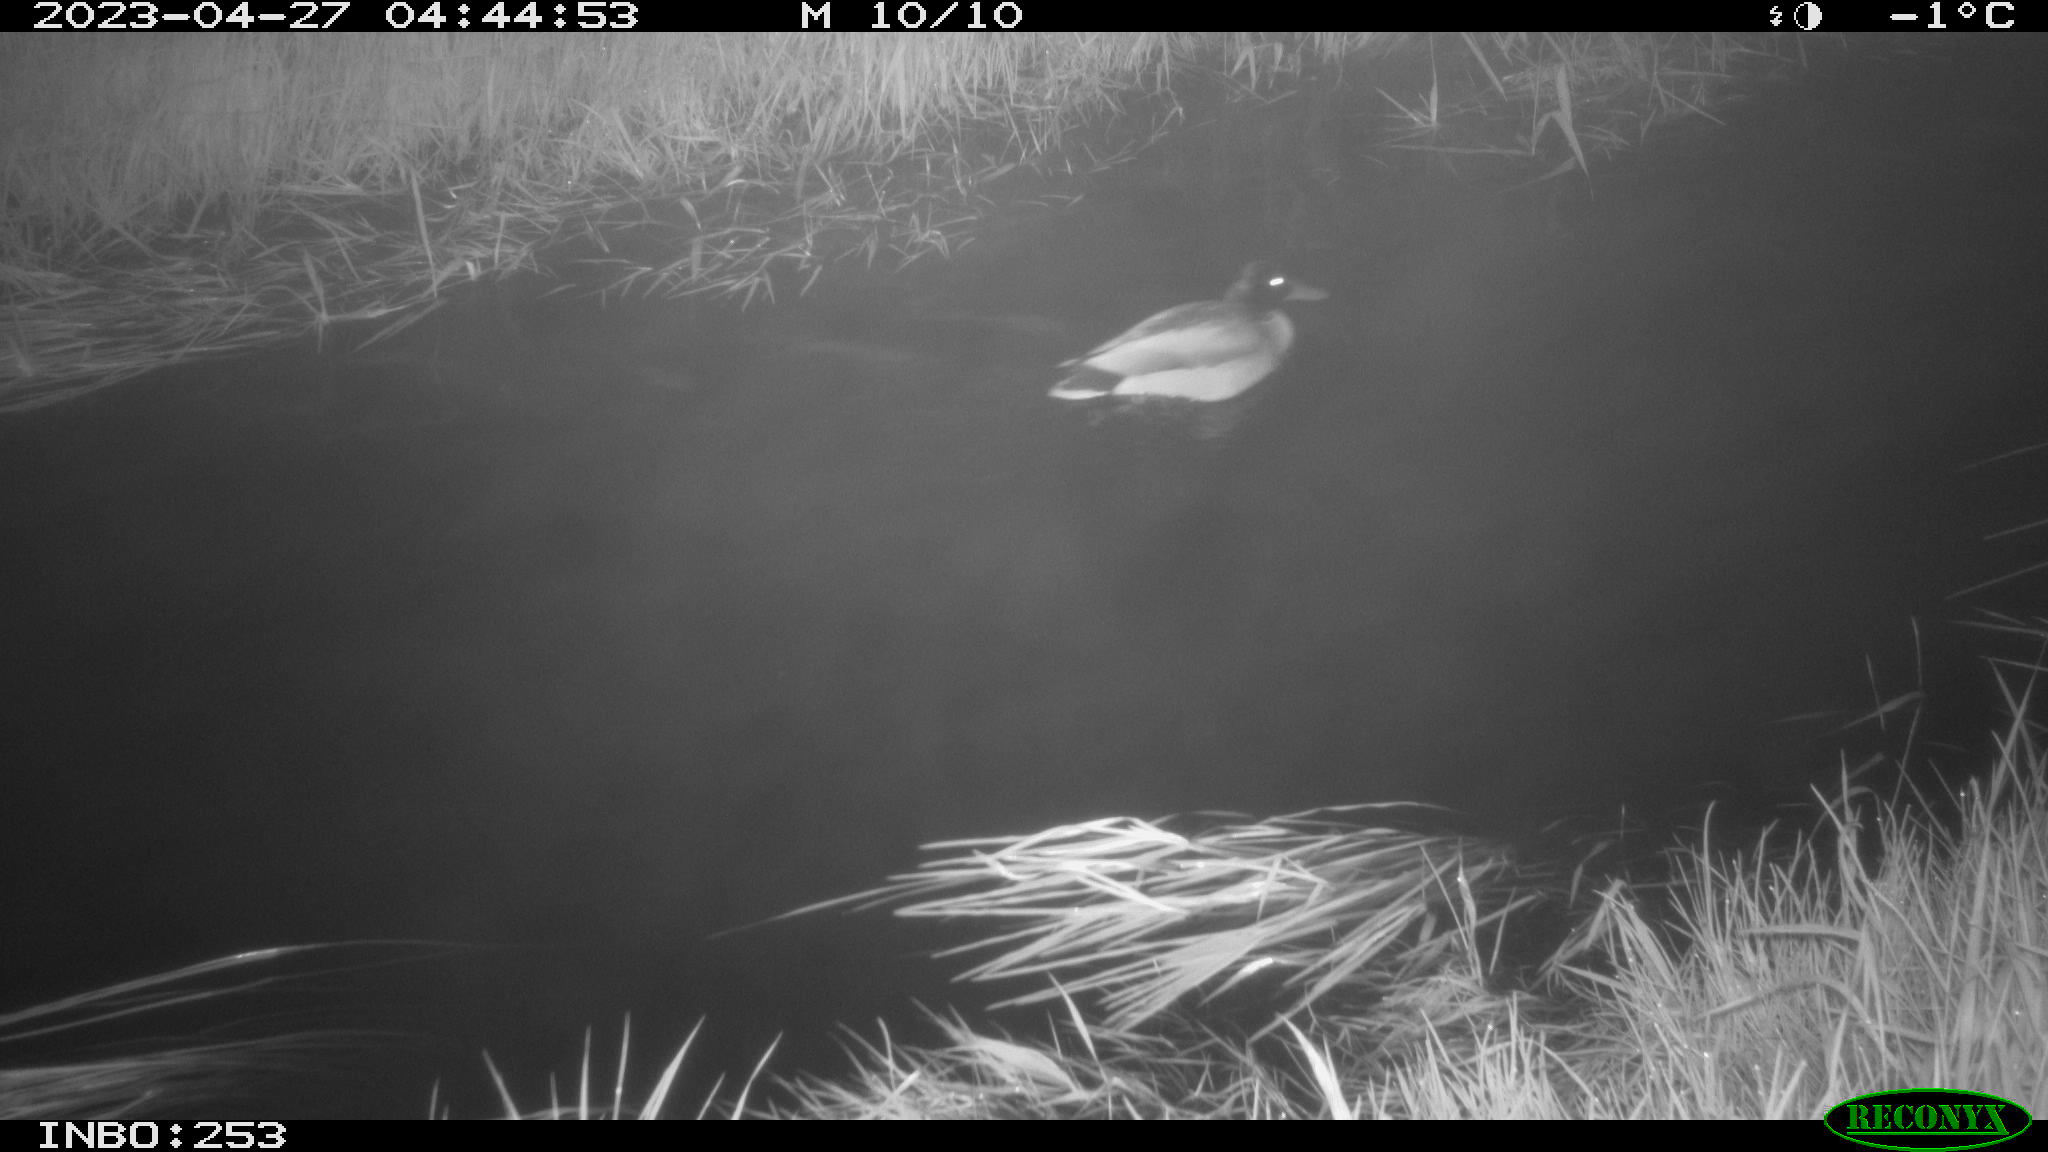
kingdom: Animalia
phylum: Chordata
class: Aves
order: Anseriformes
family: Anatidae
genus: Anas
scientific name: Anas
